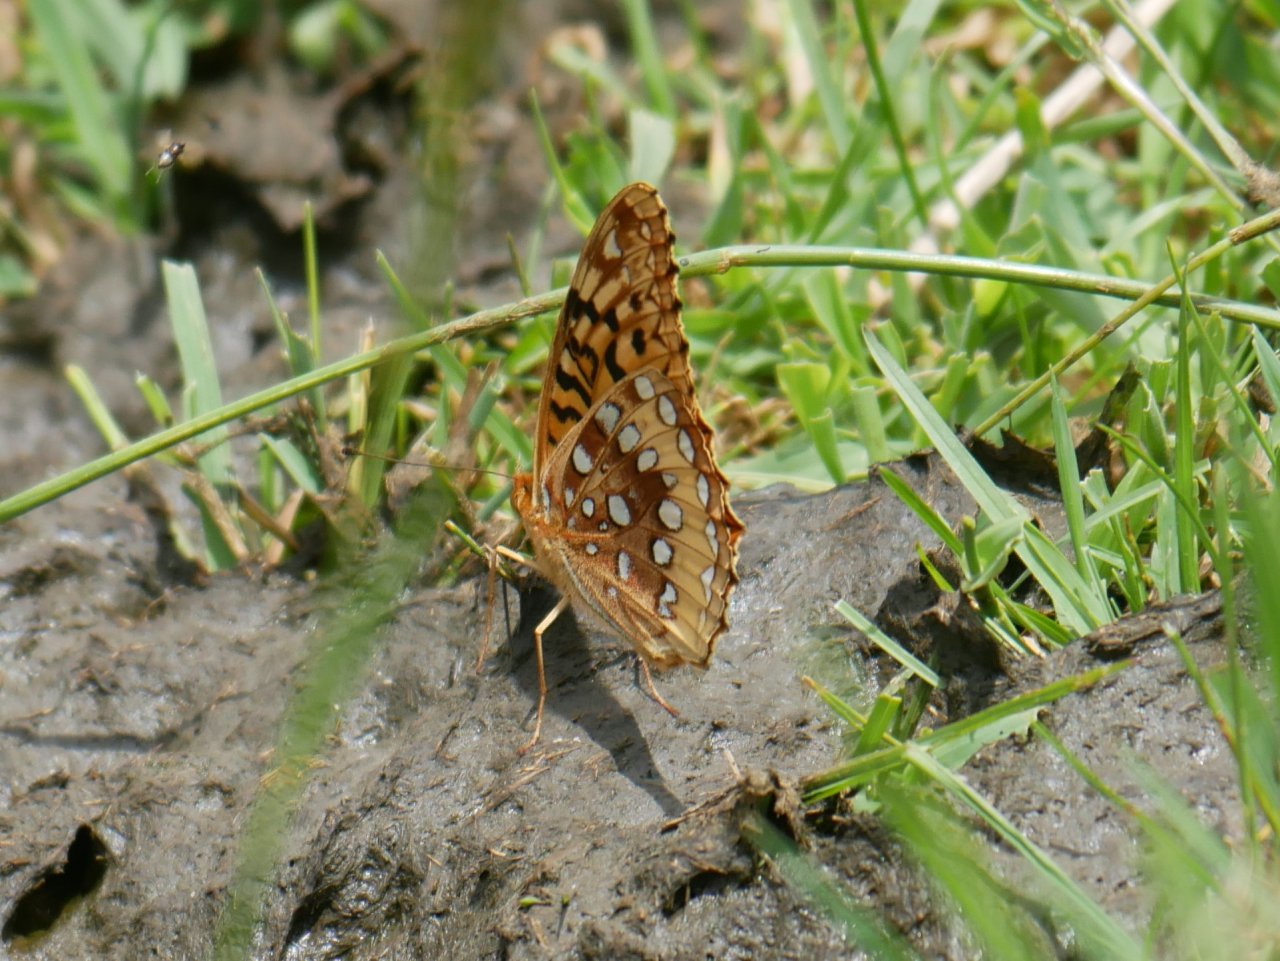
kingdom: Animalia
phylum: Arthropoda
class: Insecta
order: Lepidoptera
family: Nymphalidae
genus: Speyeria
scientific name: Speyeria cybele
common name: Great Spangled Fritillary
